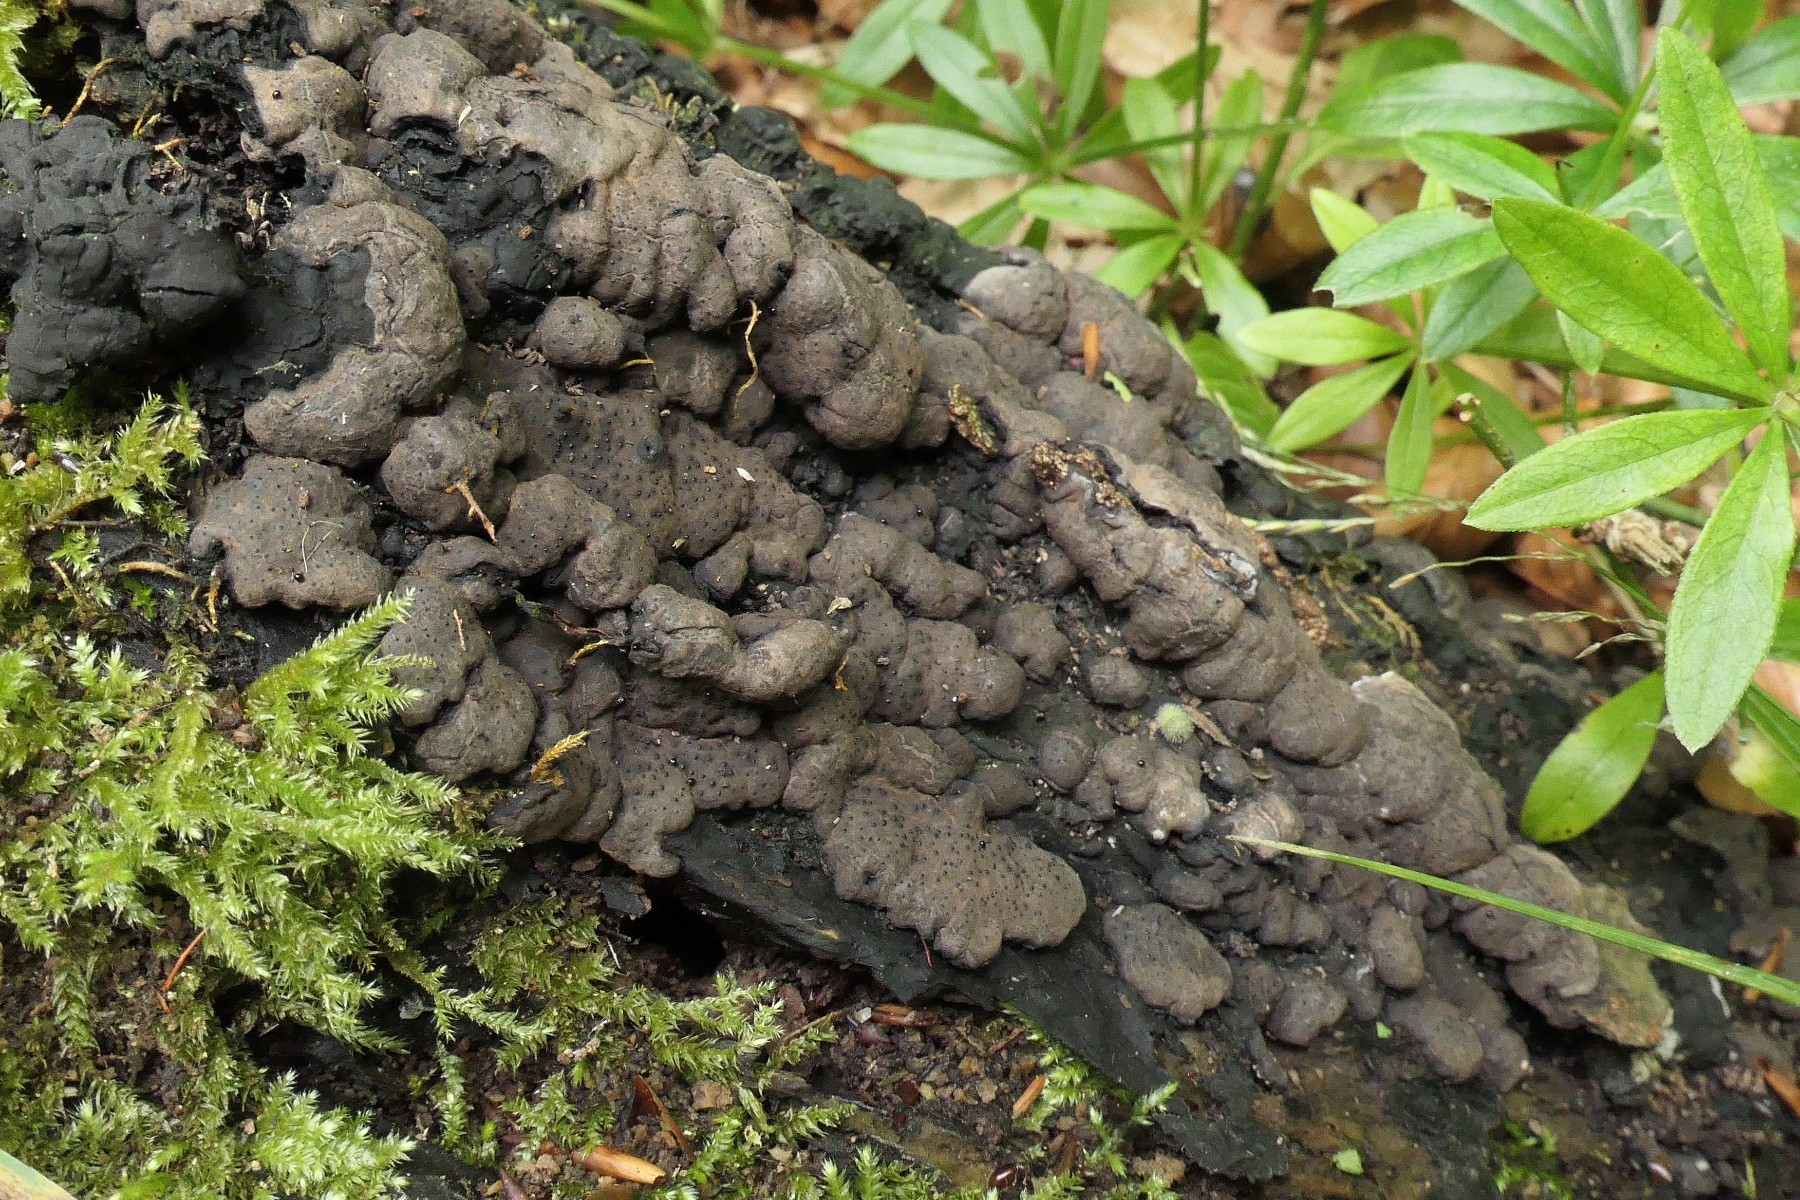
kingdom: Fungi
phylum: Ascomycota
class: Sordariomycetes
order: Xylariales
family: Xylariaceae
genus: Kretzschmaria
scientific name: Kretzschmaria deusta
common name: stor kulsvamp
